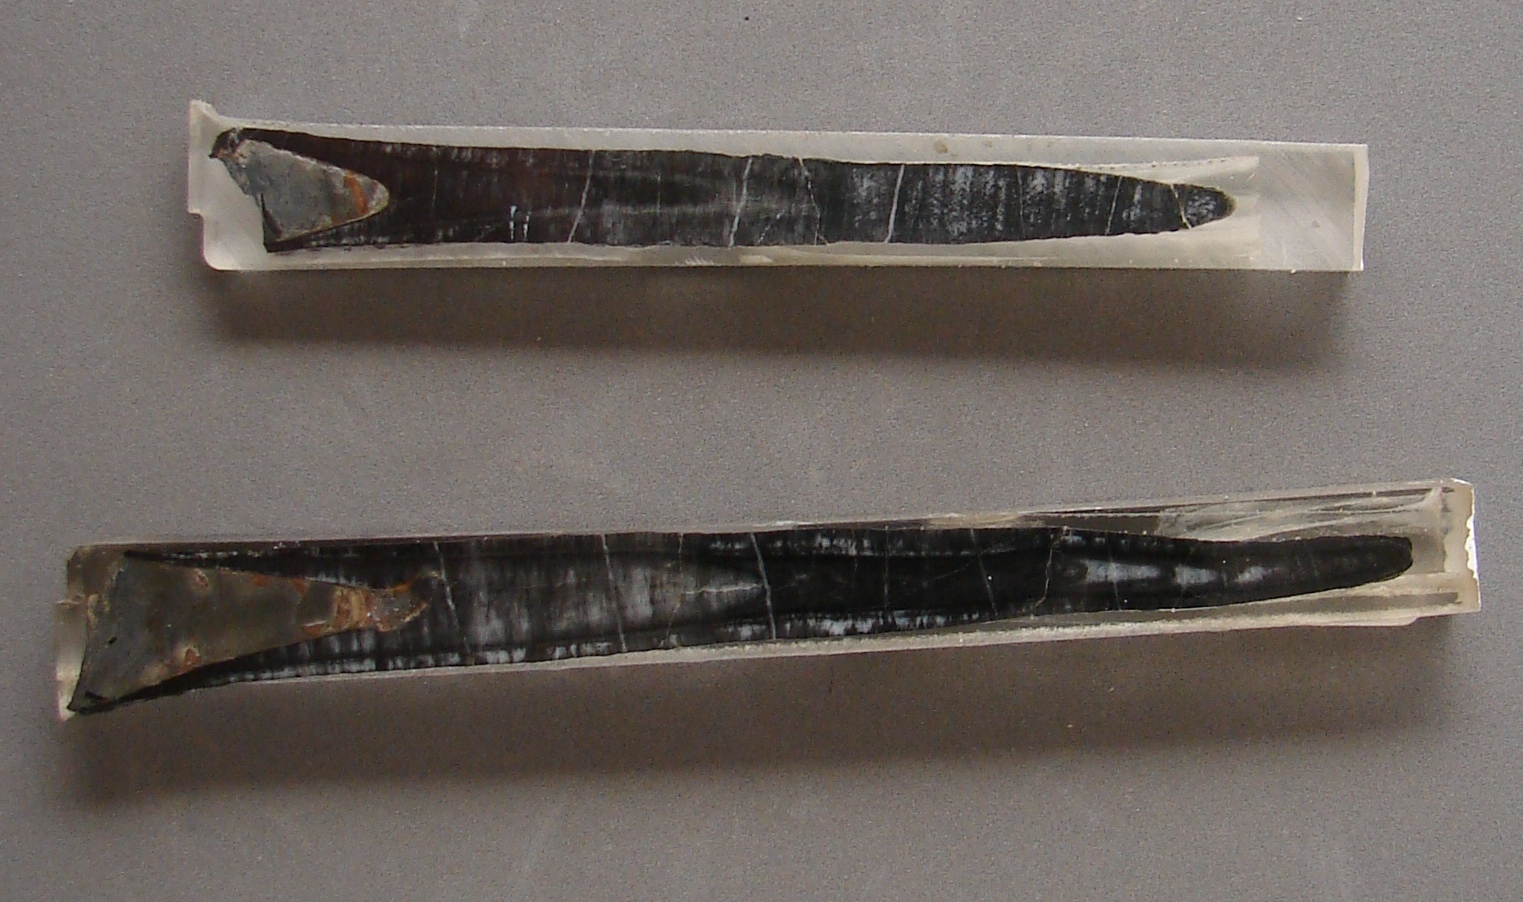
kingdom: Animalia
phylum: Mollusca
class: Cephalopoda
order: Belemnitida
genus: Holcobelus
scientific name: Holcobelus munieri
